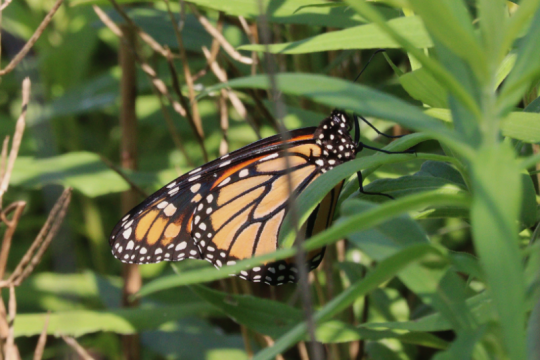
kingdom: Animalia
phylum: Arthropoda
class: Insecta
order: Lepidoptera
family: Nymphalidae
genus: Danaus
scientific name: Danaus plexippus
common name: Monarch
